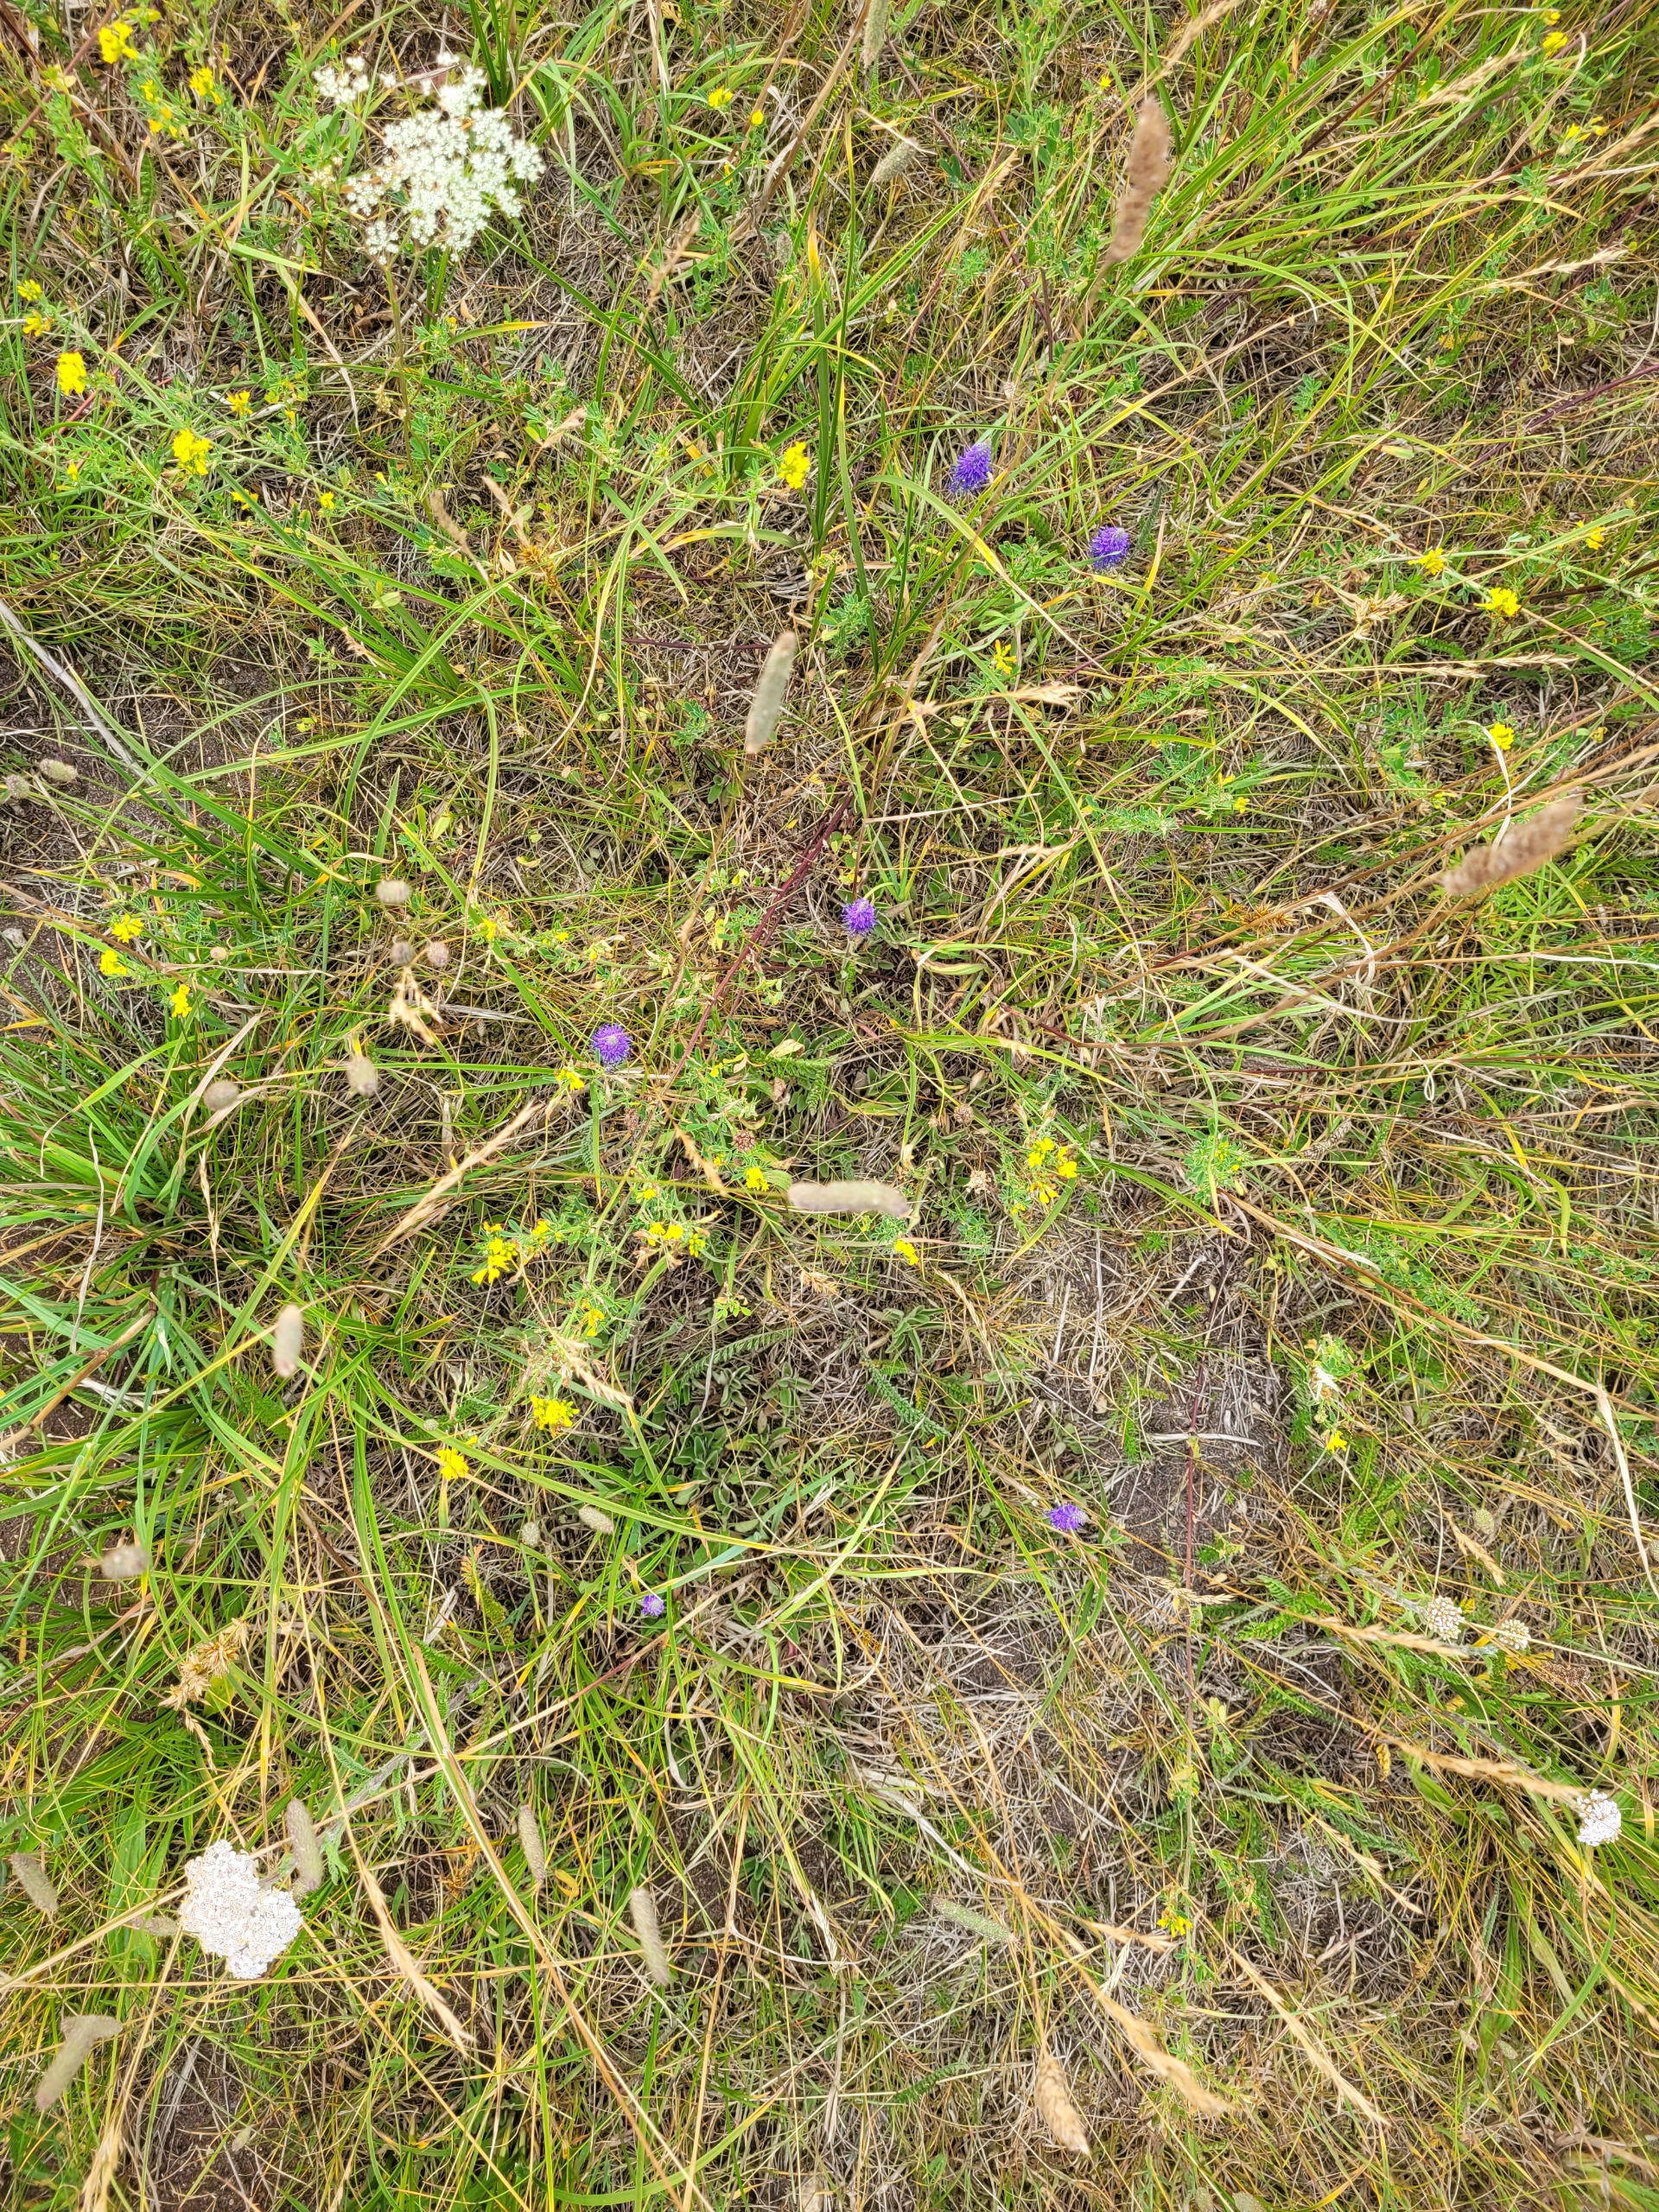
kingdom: Plantae
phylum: Tracheophyta
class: Magnoliopsida
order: Lamiales
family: Plantaginaceae
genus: Veronica
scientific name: Veronica spicata
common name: Aks-ærenpris
